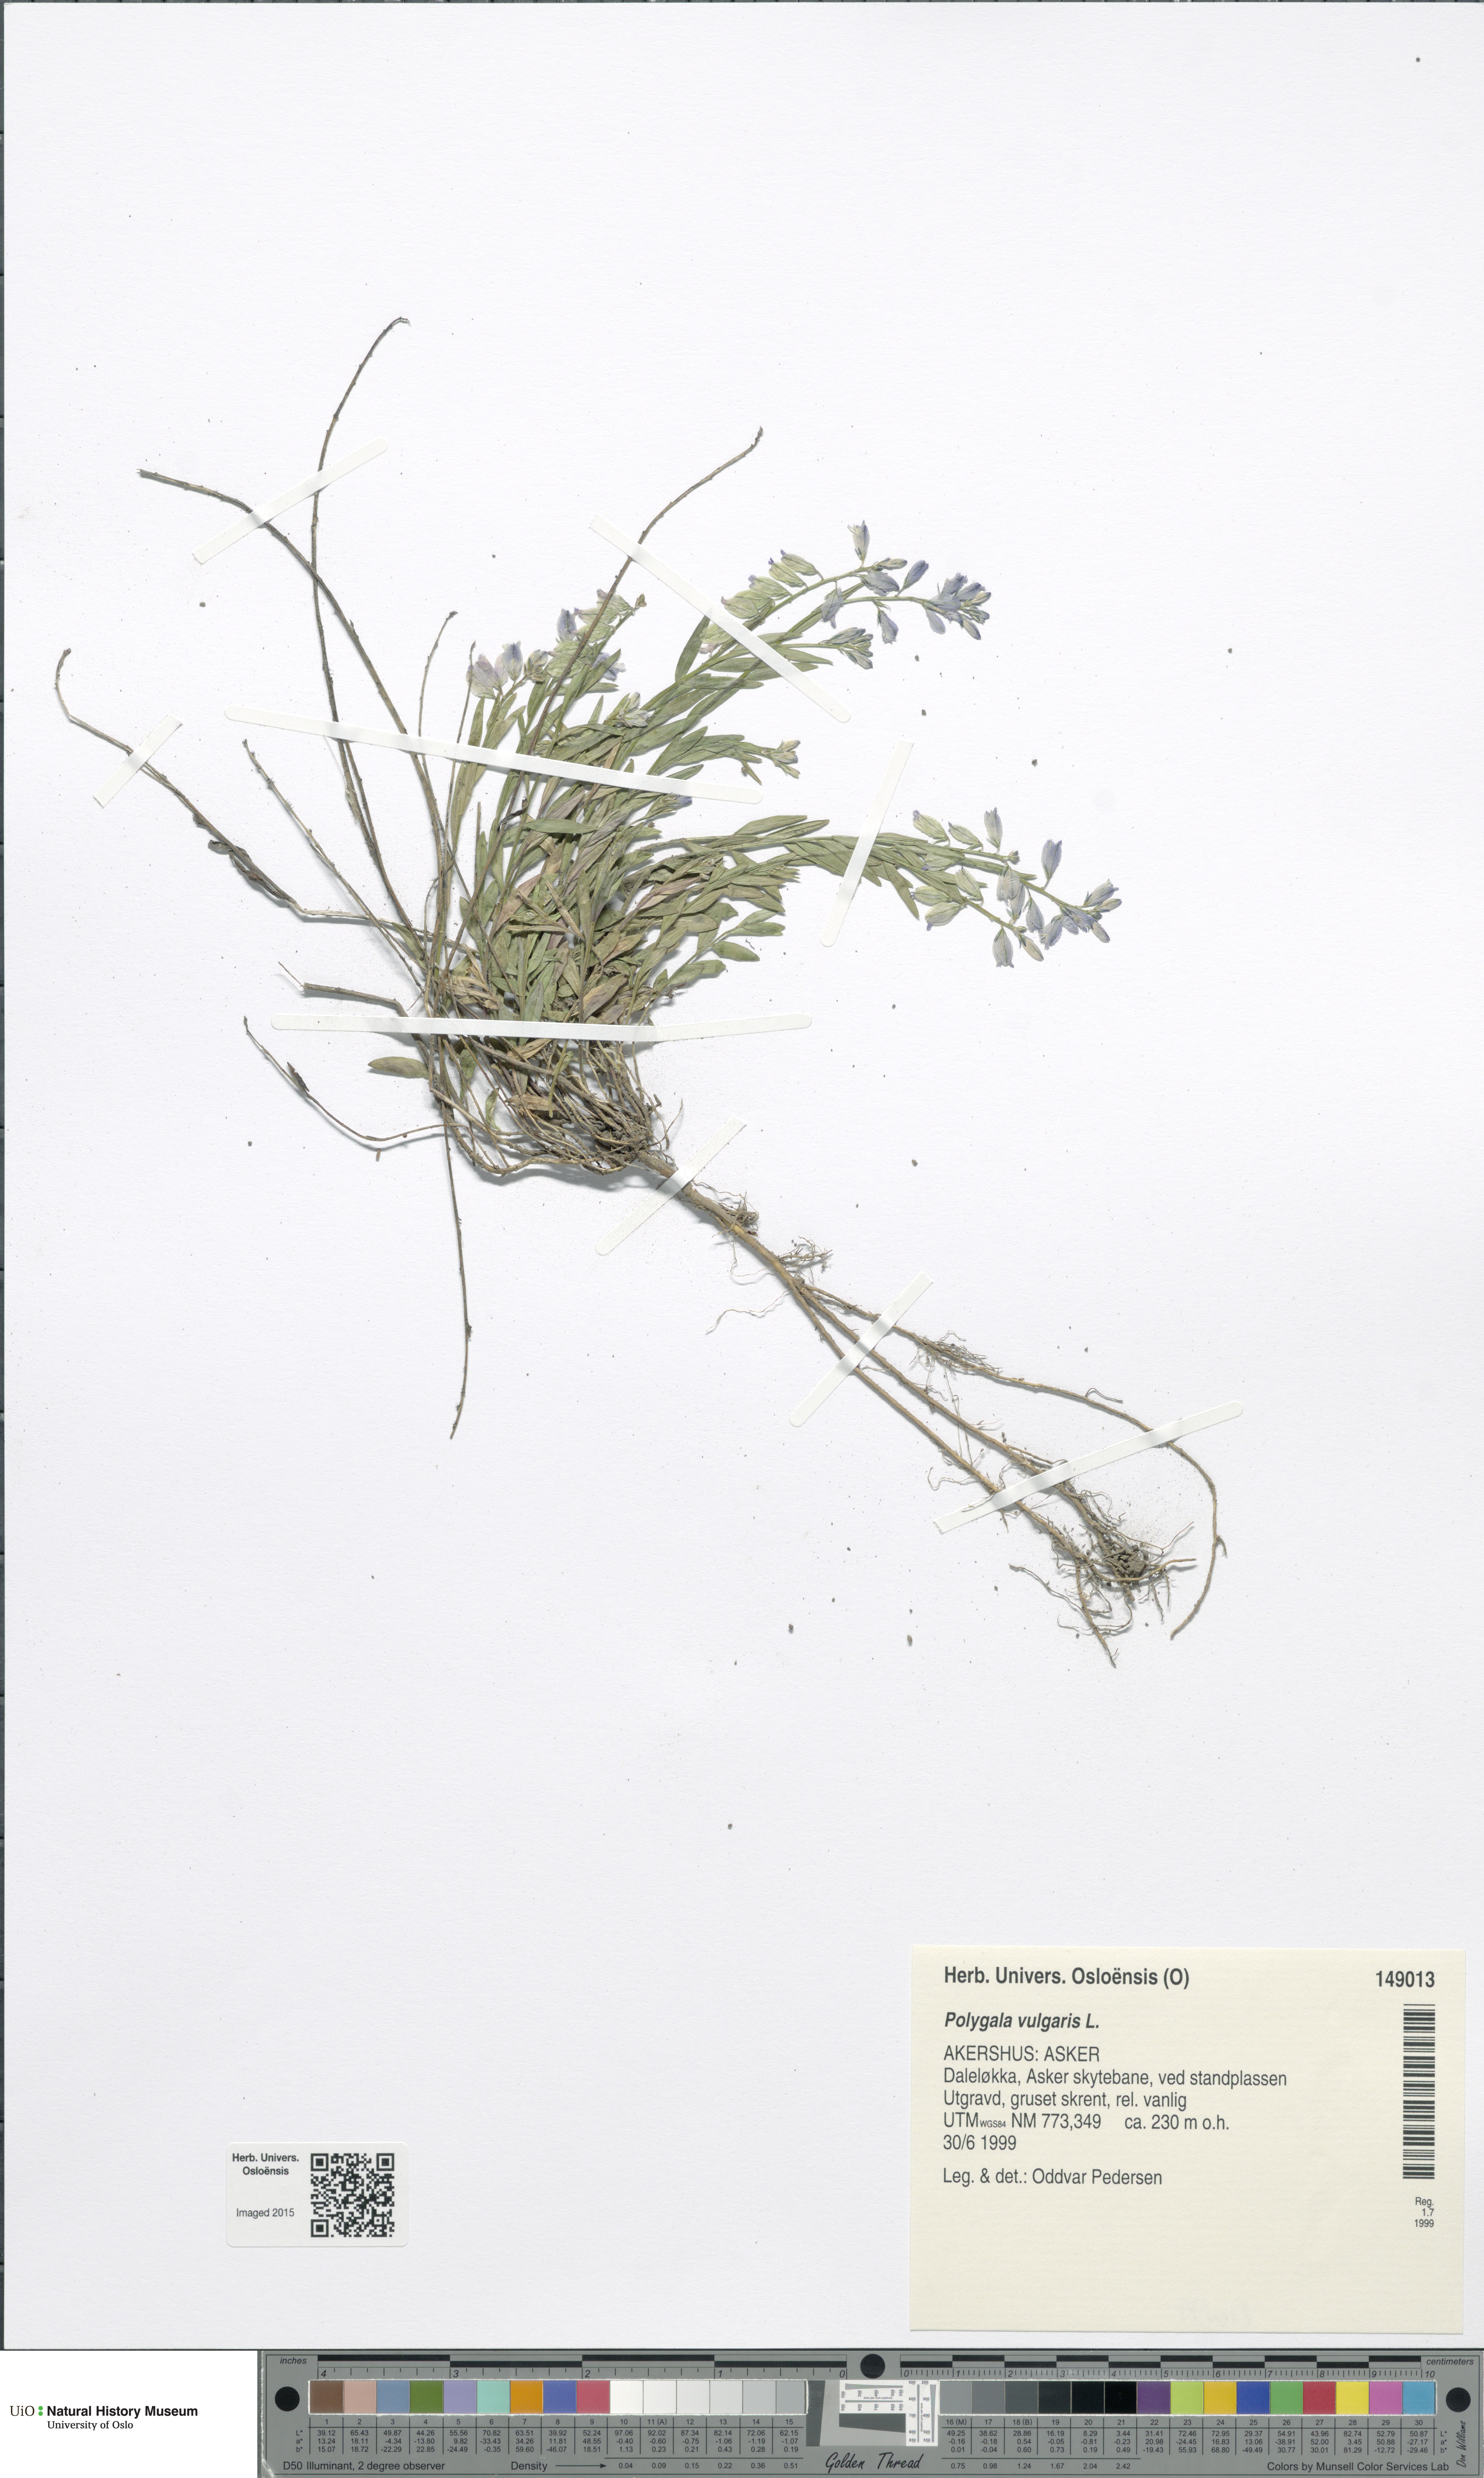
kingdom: Plantae
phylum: Tracheophyta
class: Magnoliopsida
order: Fabales
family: Polygalaceae
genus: Polygala
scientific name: Polygala vulgaris
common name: Common milkwort
